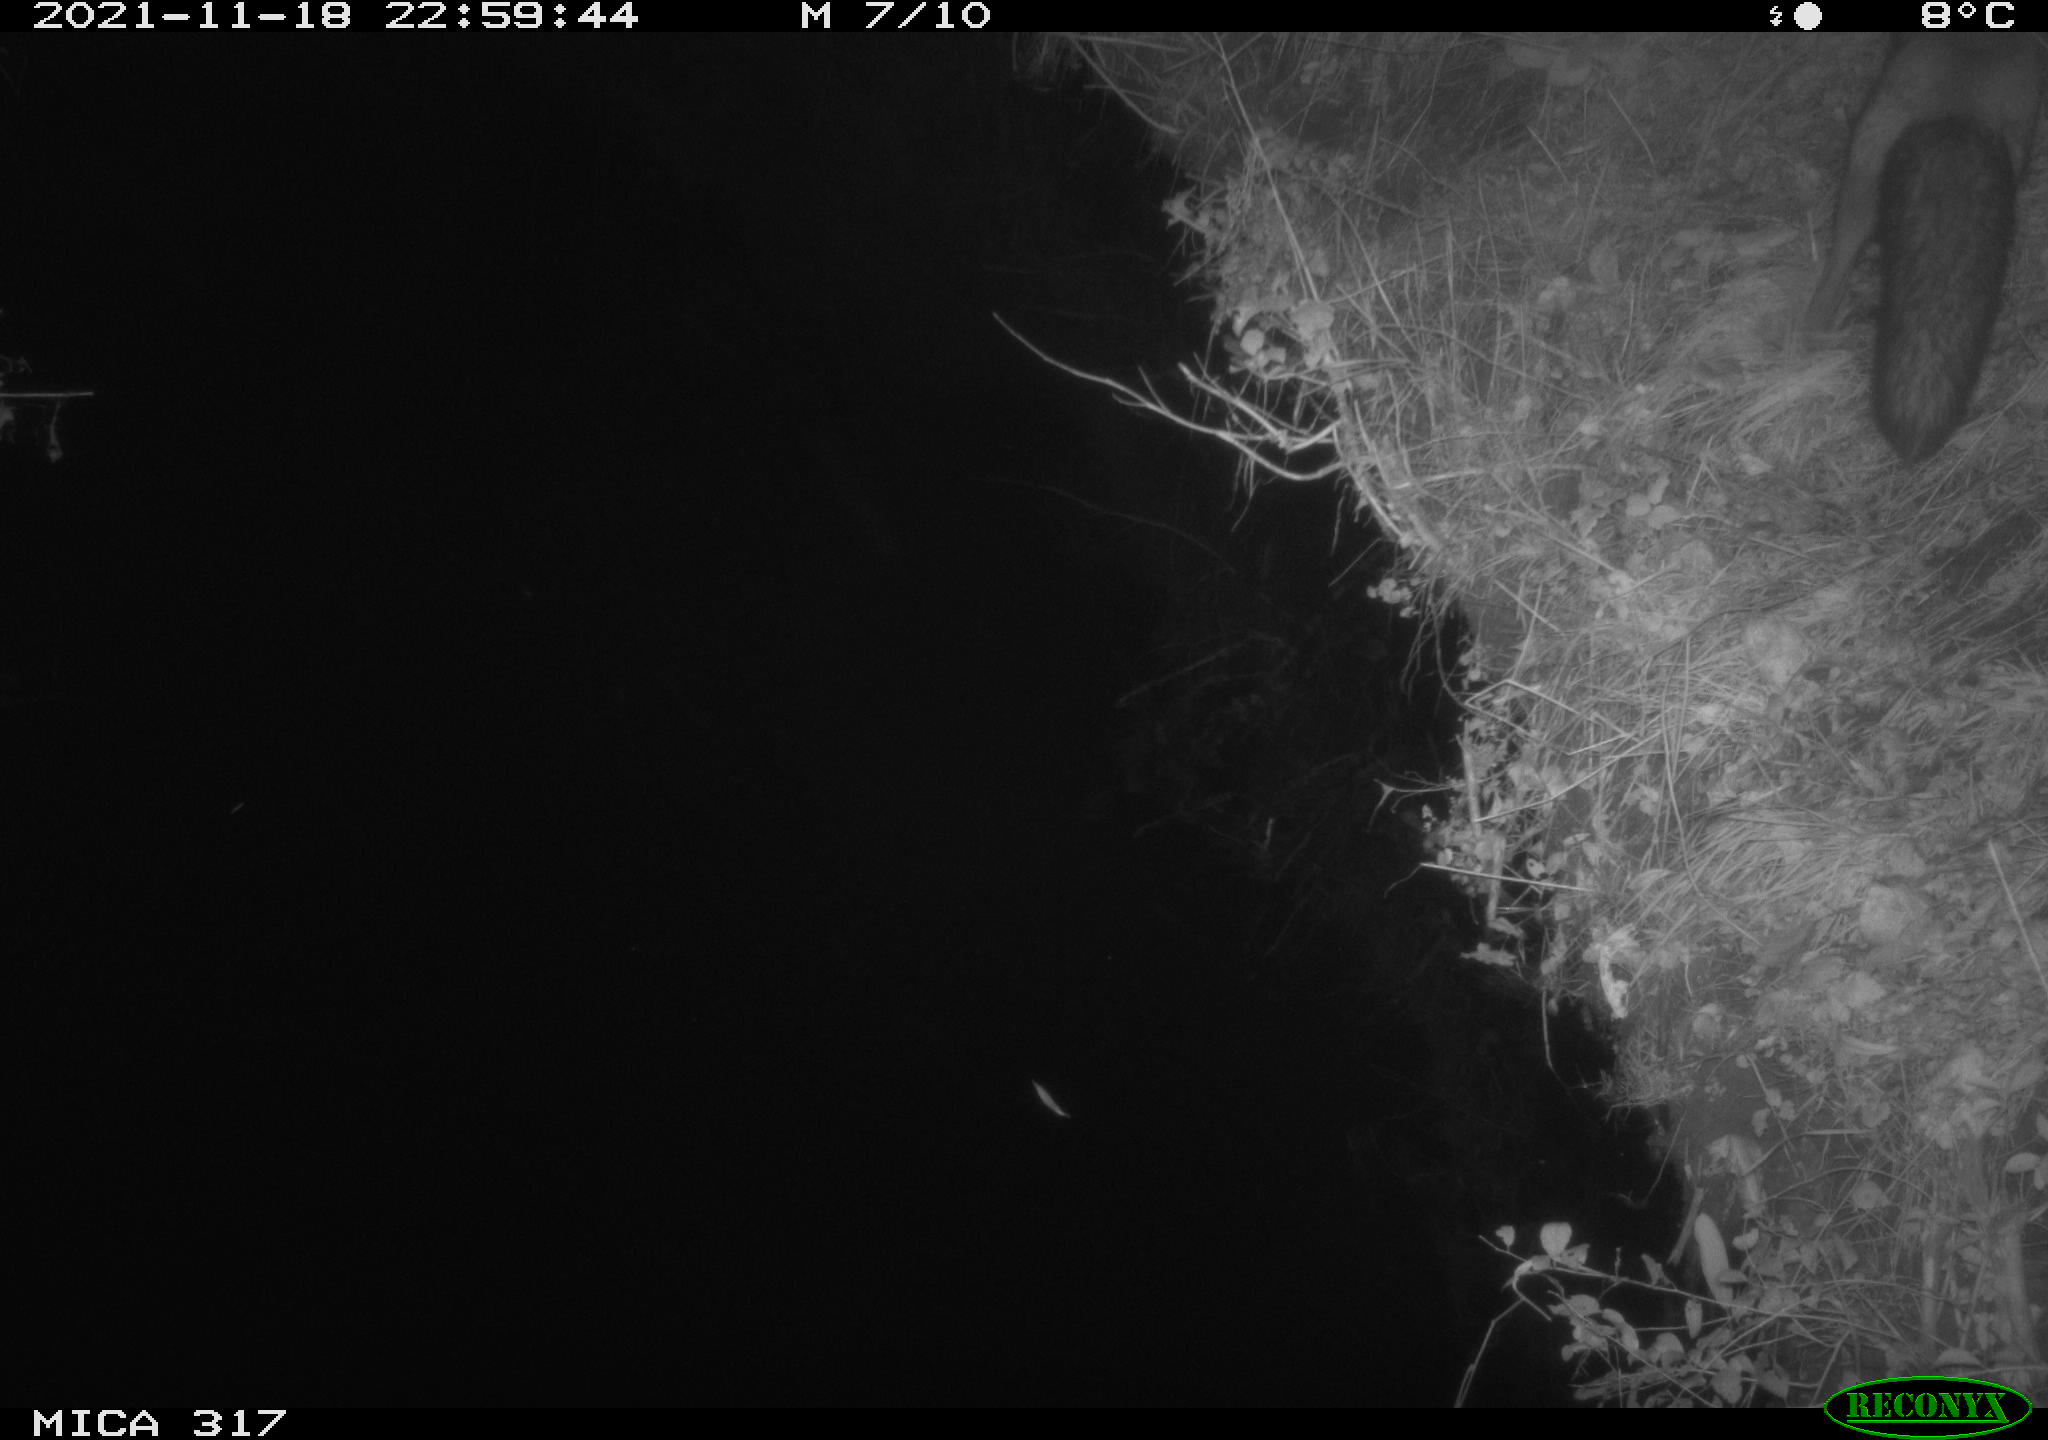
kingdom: Animalia
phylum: Chordata
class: Mammalia
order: Carnivora
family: Canidae
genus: Vulpes
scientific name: Vulpes vulpes
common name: Red fox
